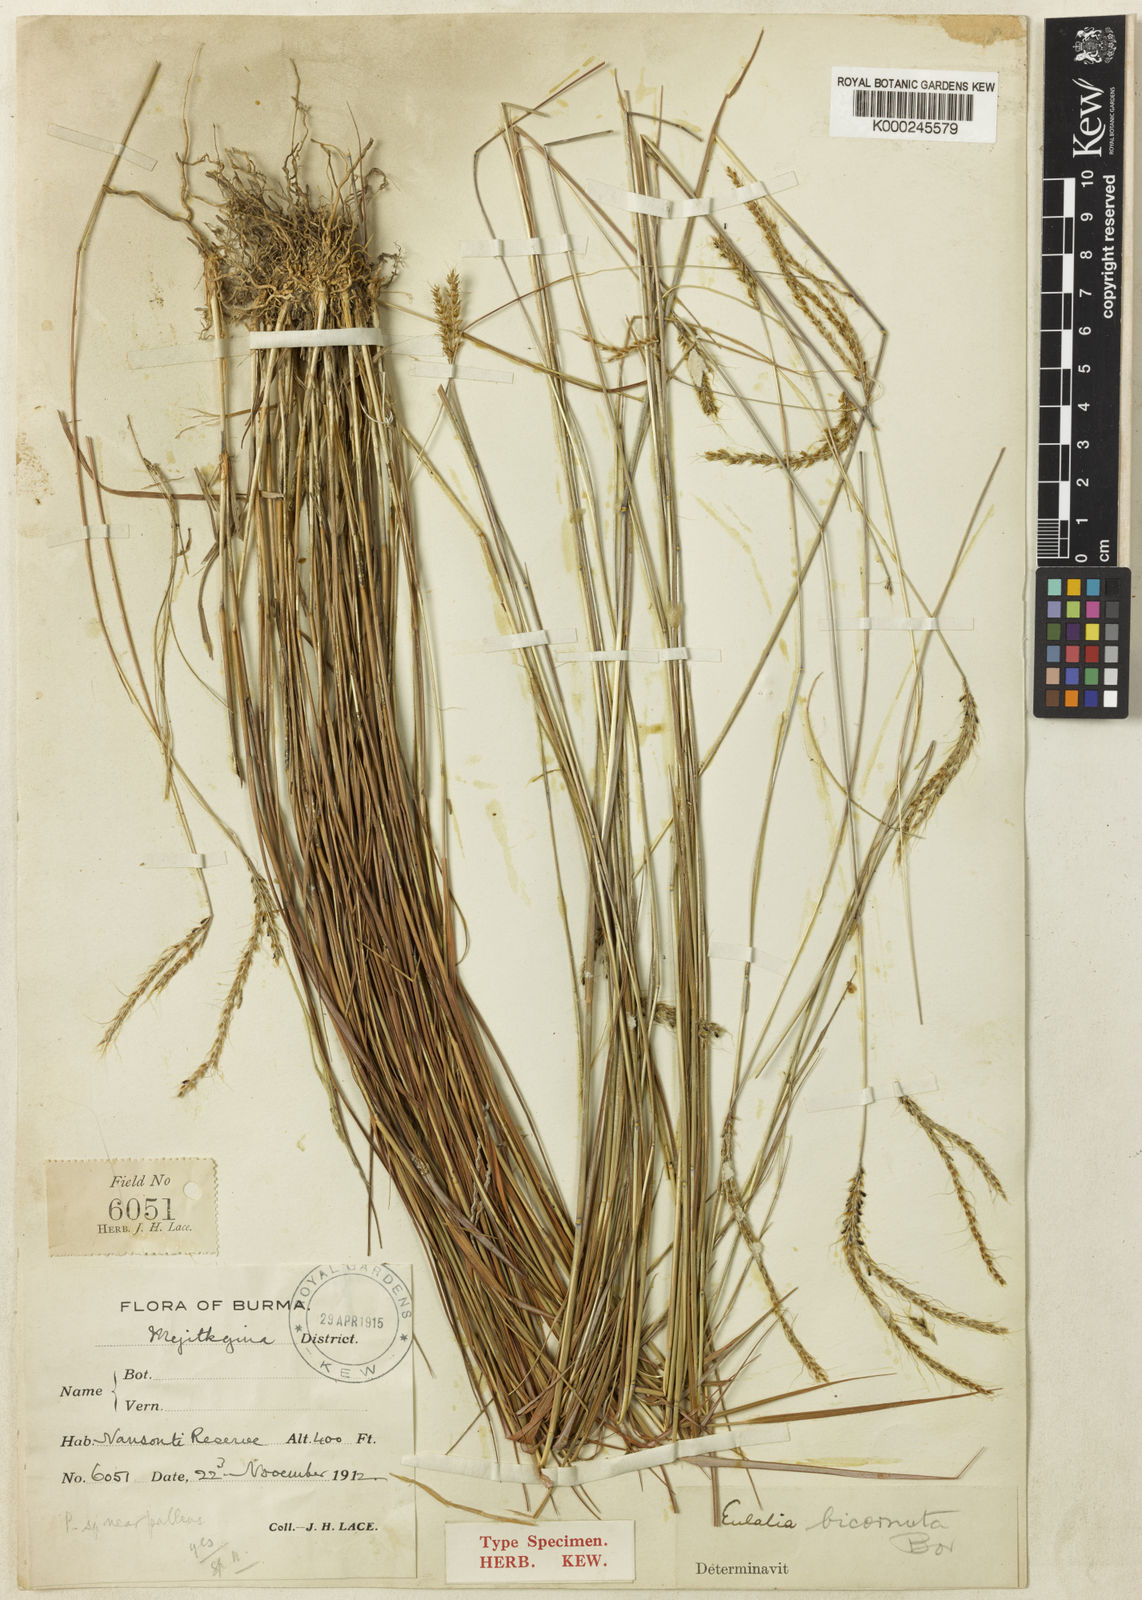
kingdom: Plantae
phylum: Tracheophyta
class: Liliopsida
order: Poales
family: Poaceae
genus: Eulalia
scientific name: Eulalia bicornuta
